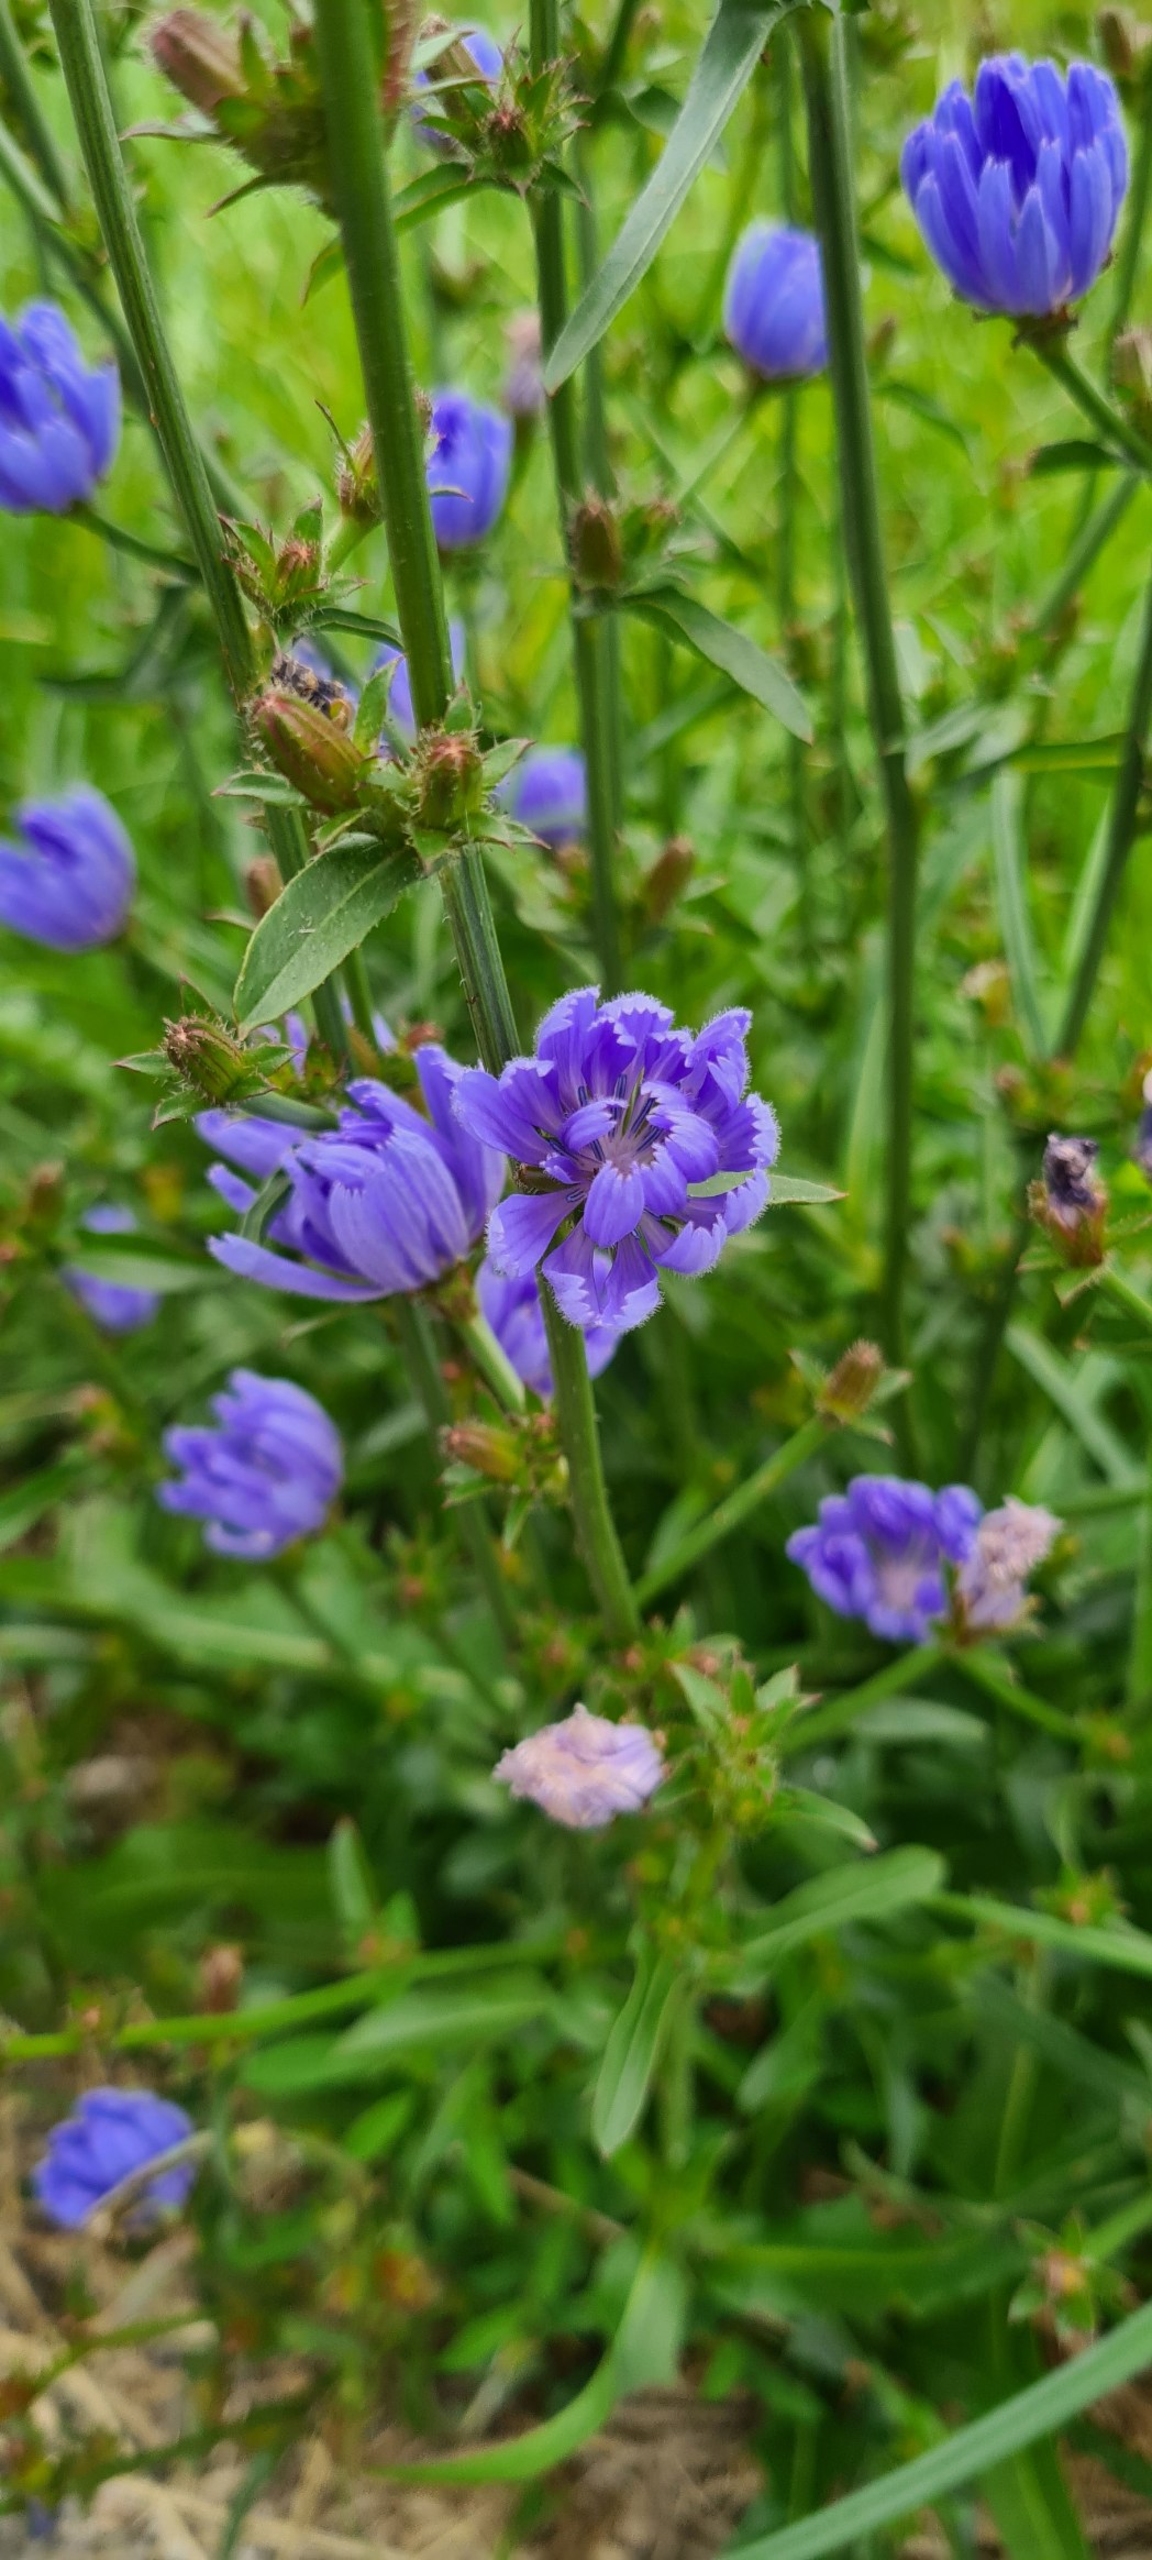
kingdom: Plantae
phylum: Tracheophyta
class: Magnoliopsida
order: Asterales
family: Asteraceae
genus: Cichorium
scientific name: Cichorium intybus
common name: Cikorie
